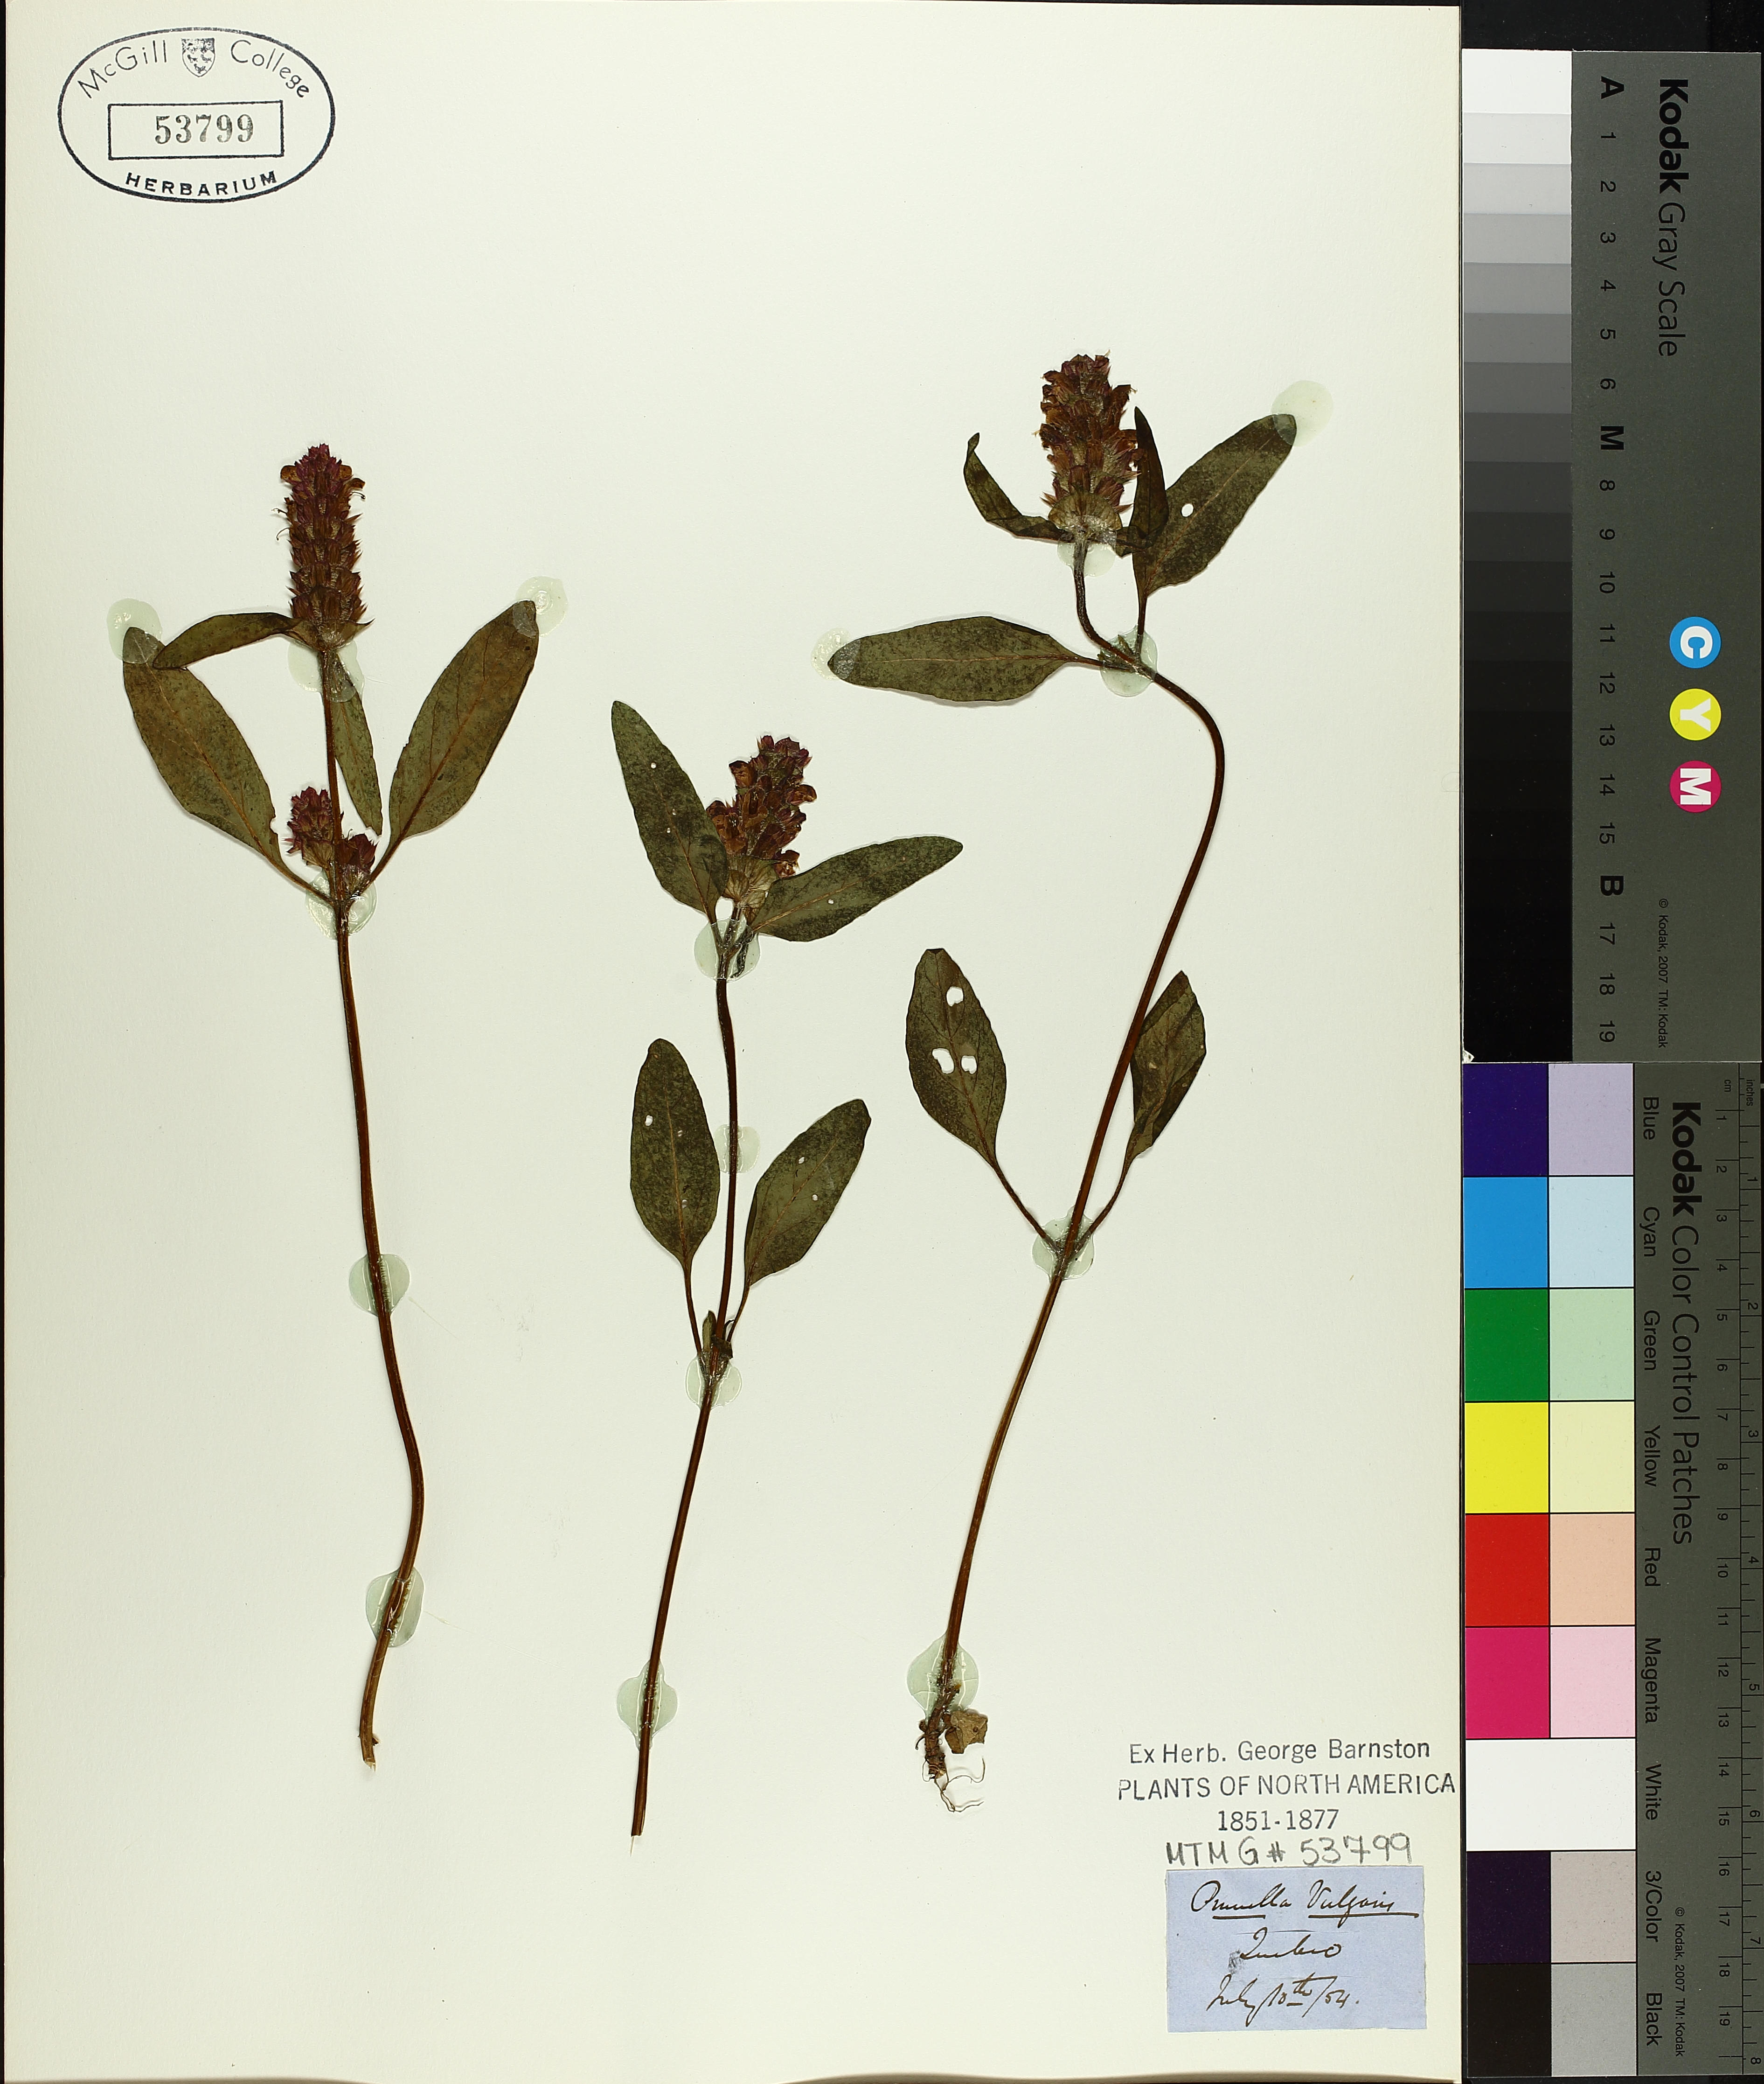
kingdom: Plantae
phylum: Tracheophyta
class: Magnoliopsida
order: Lamiales
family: Lamiaceae
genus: Prunella
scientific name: Prunella vulgaris
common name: Heal-all
